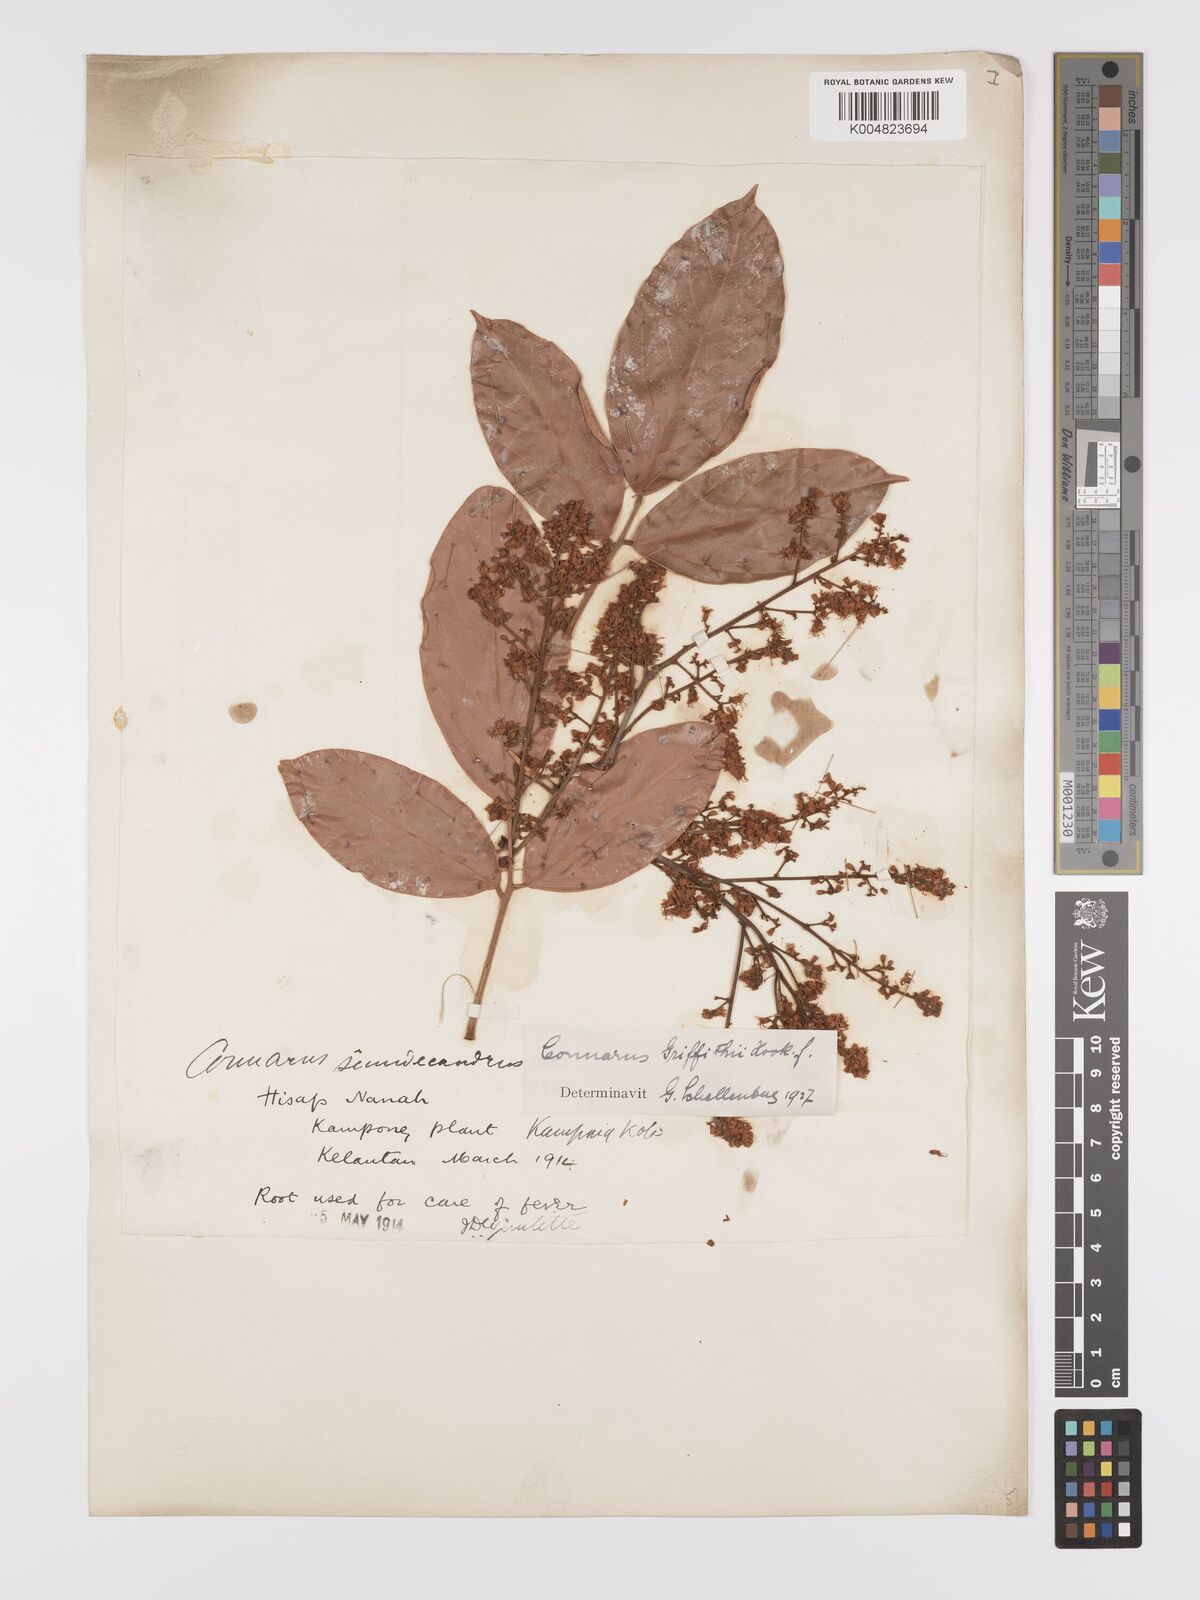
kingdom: Plantae
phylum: Tracheophyta
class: Magnoliopsida
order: Oxalidales
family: Connaraceae
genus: Connarus
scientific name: Connarus semidecandrus
